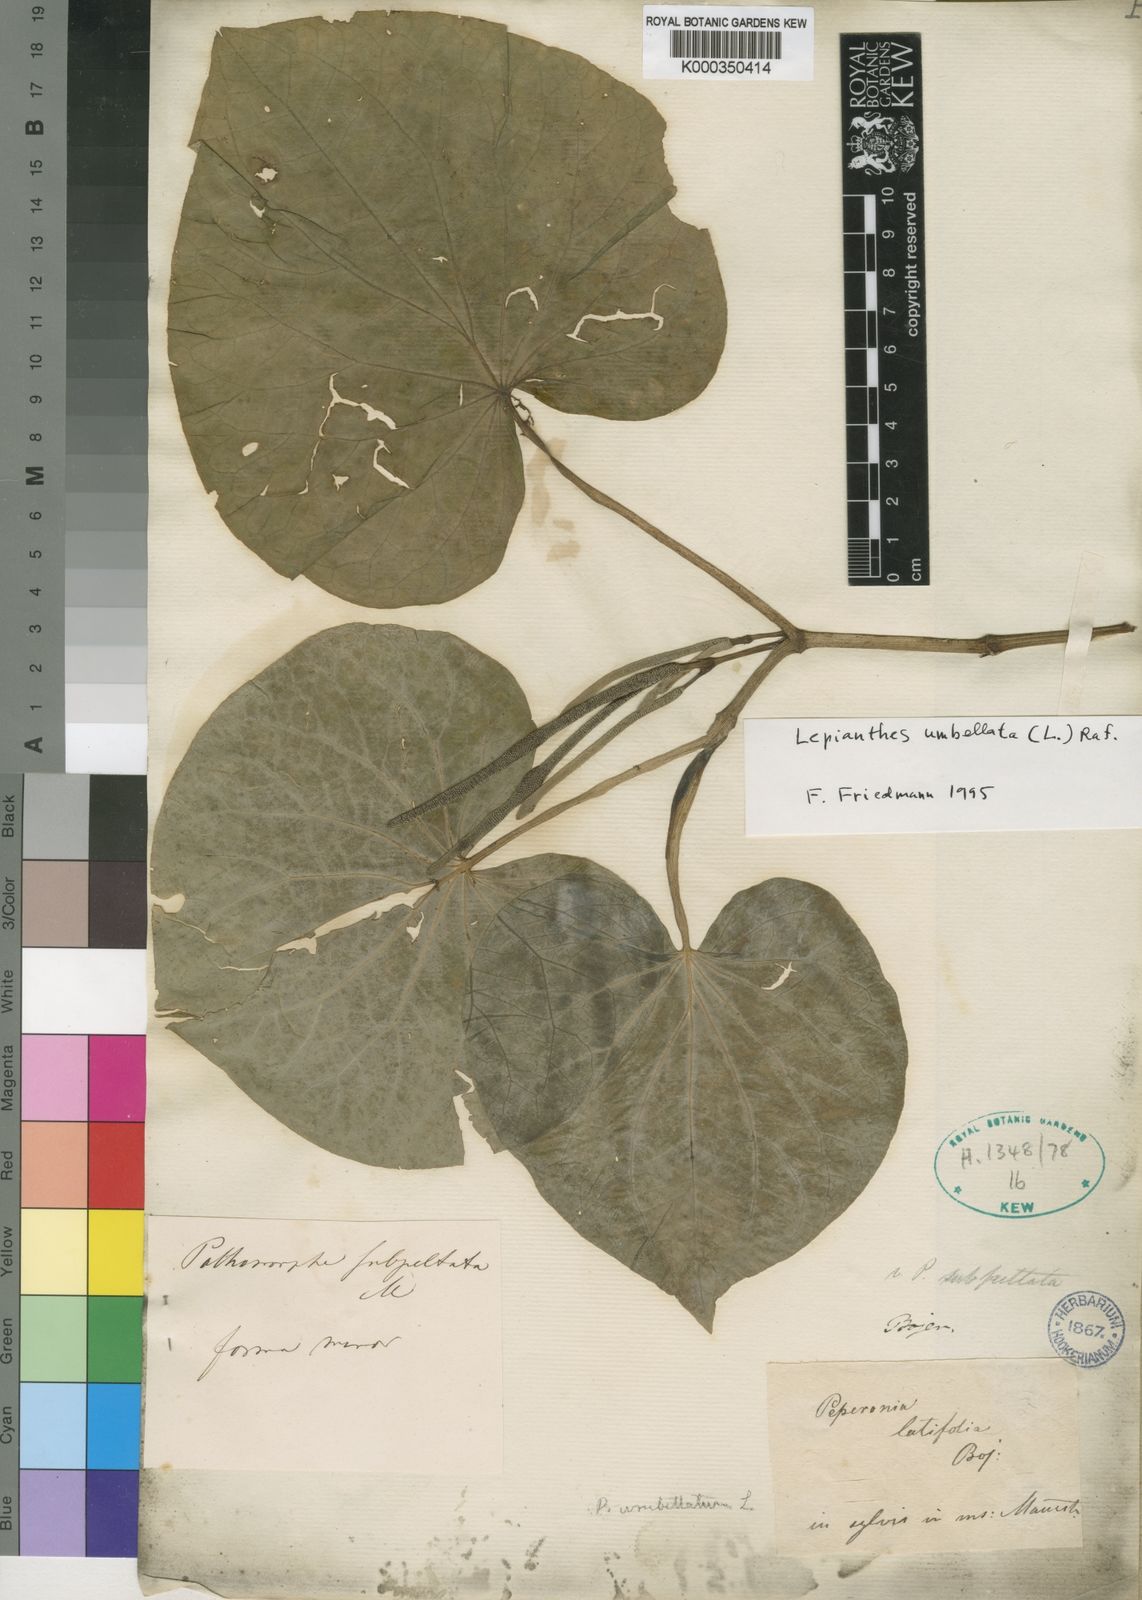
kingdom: Plantae
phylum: Tracheophyta
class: Magnoliopsida
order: Piperales
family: Piperaceae
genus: Piper
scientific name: Piper umbellatum
